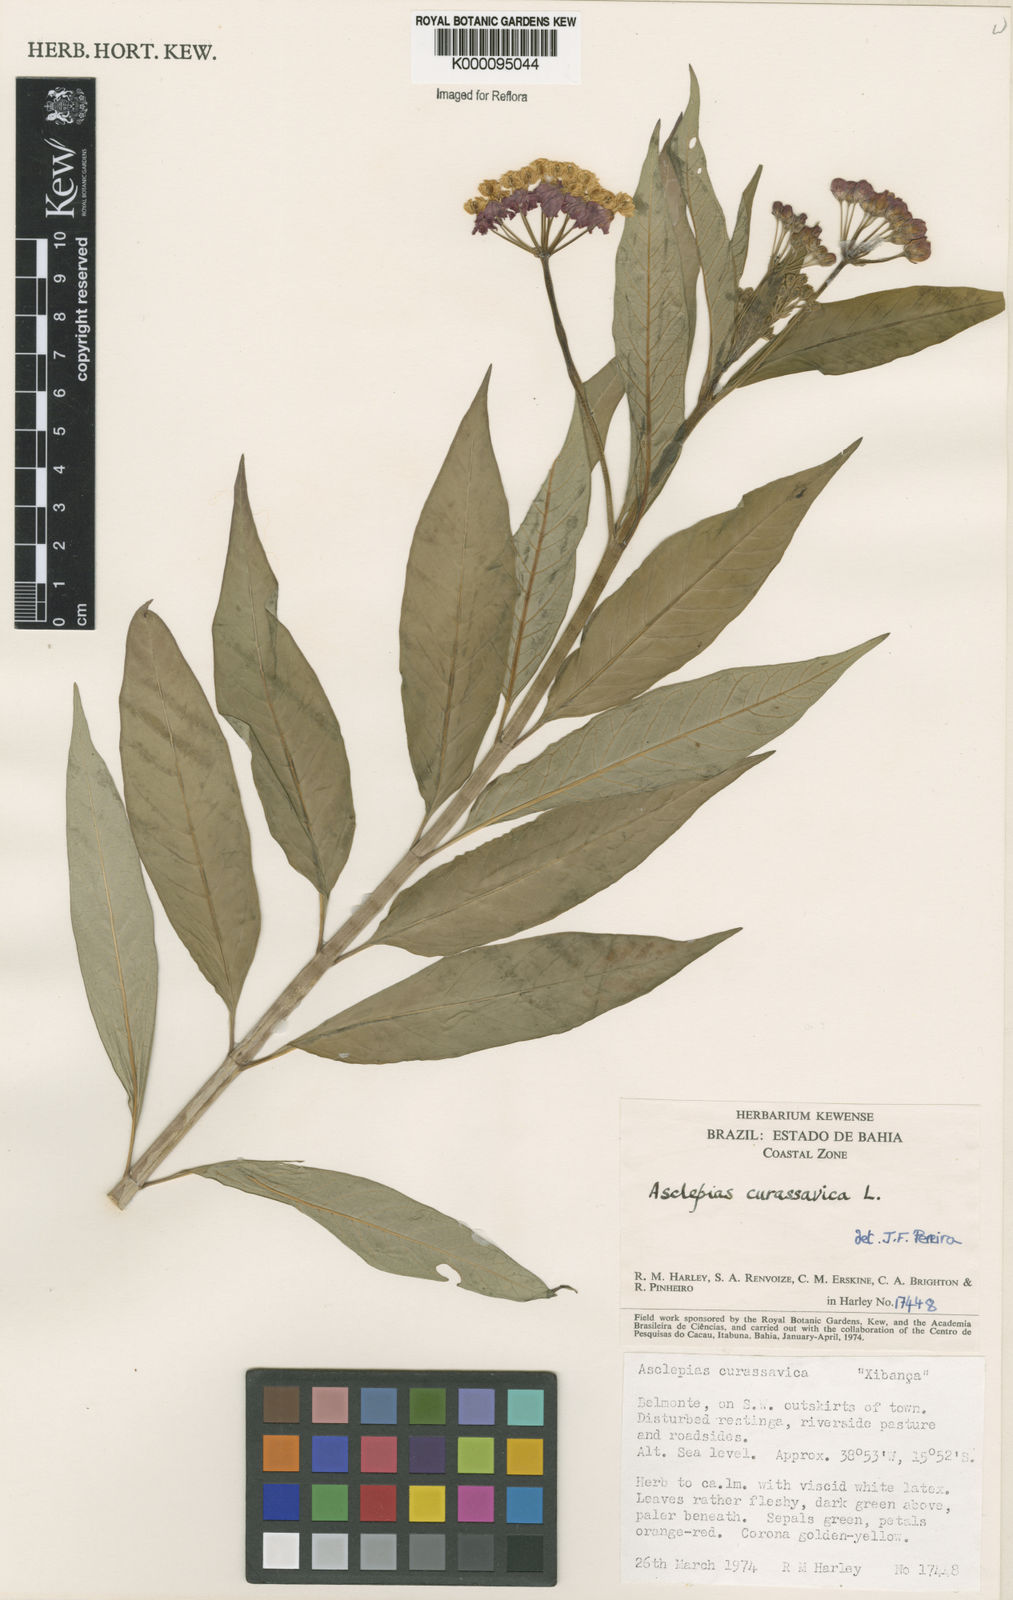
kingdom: Plantae
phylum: Tracheophyta
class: Magnoliopsida
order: Gentianales
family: Apocynaceae
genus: Asclepias
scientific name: Asclepias curassavica
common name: Bloodflower
